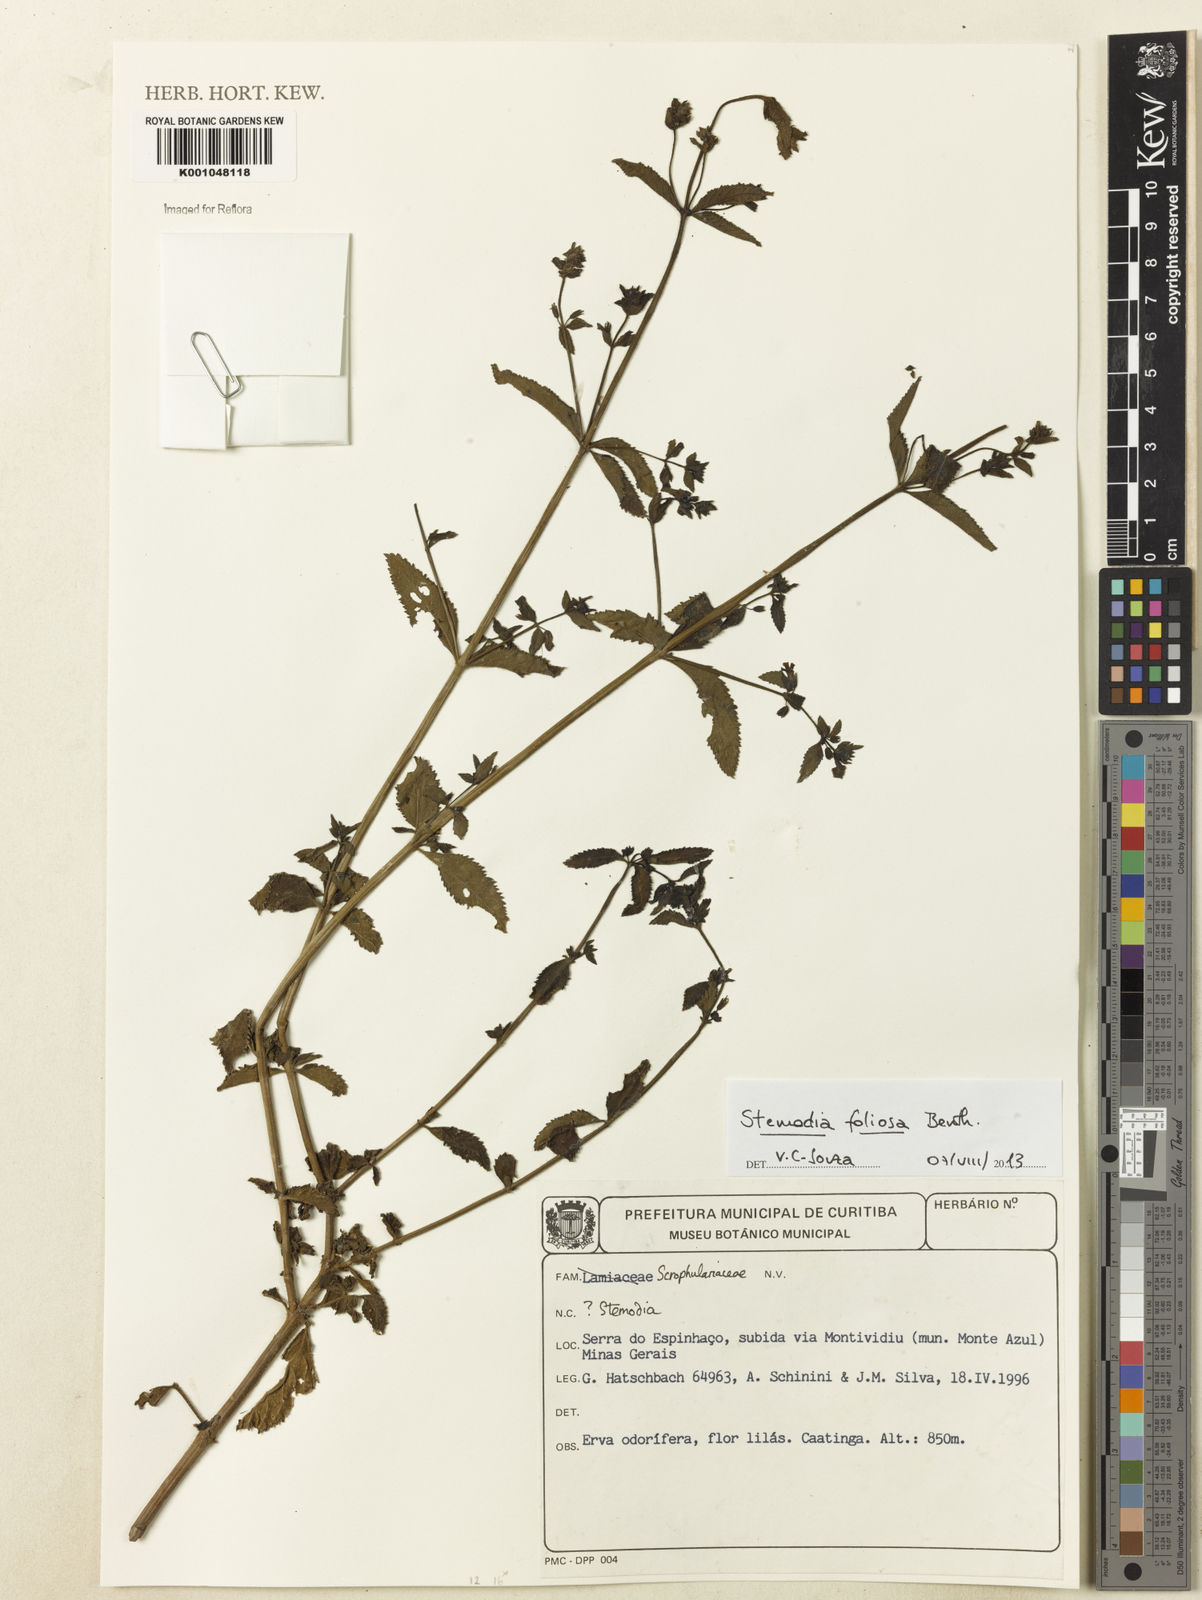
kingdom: Plantae
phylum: Tracheophyta
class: Magnoliopsida
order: Lamiales
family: Plantaginaceae
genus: Stemodia
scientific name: Stemodia foliosa
